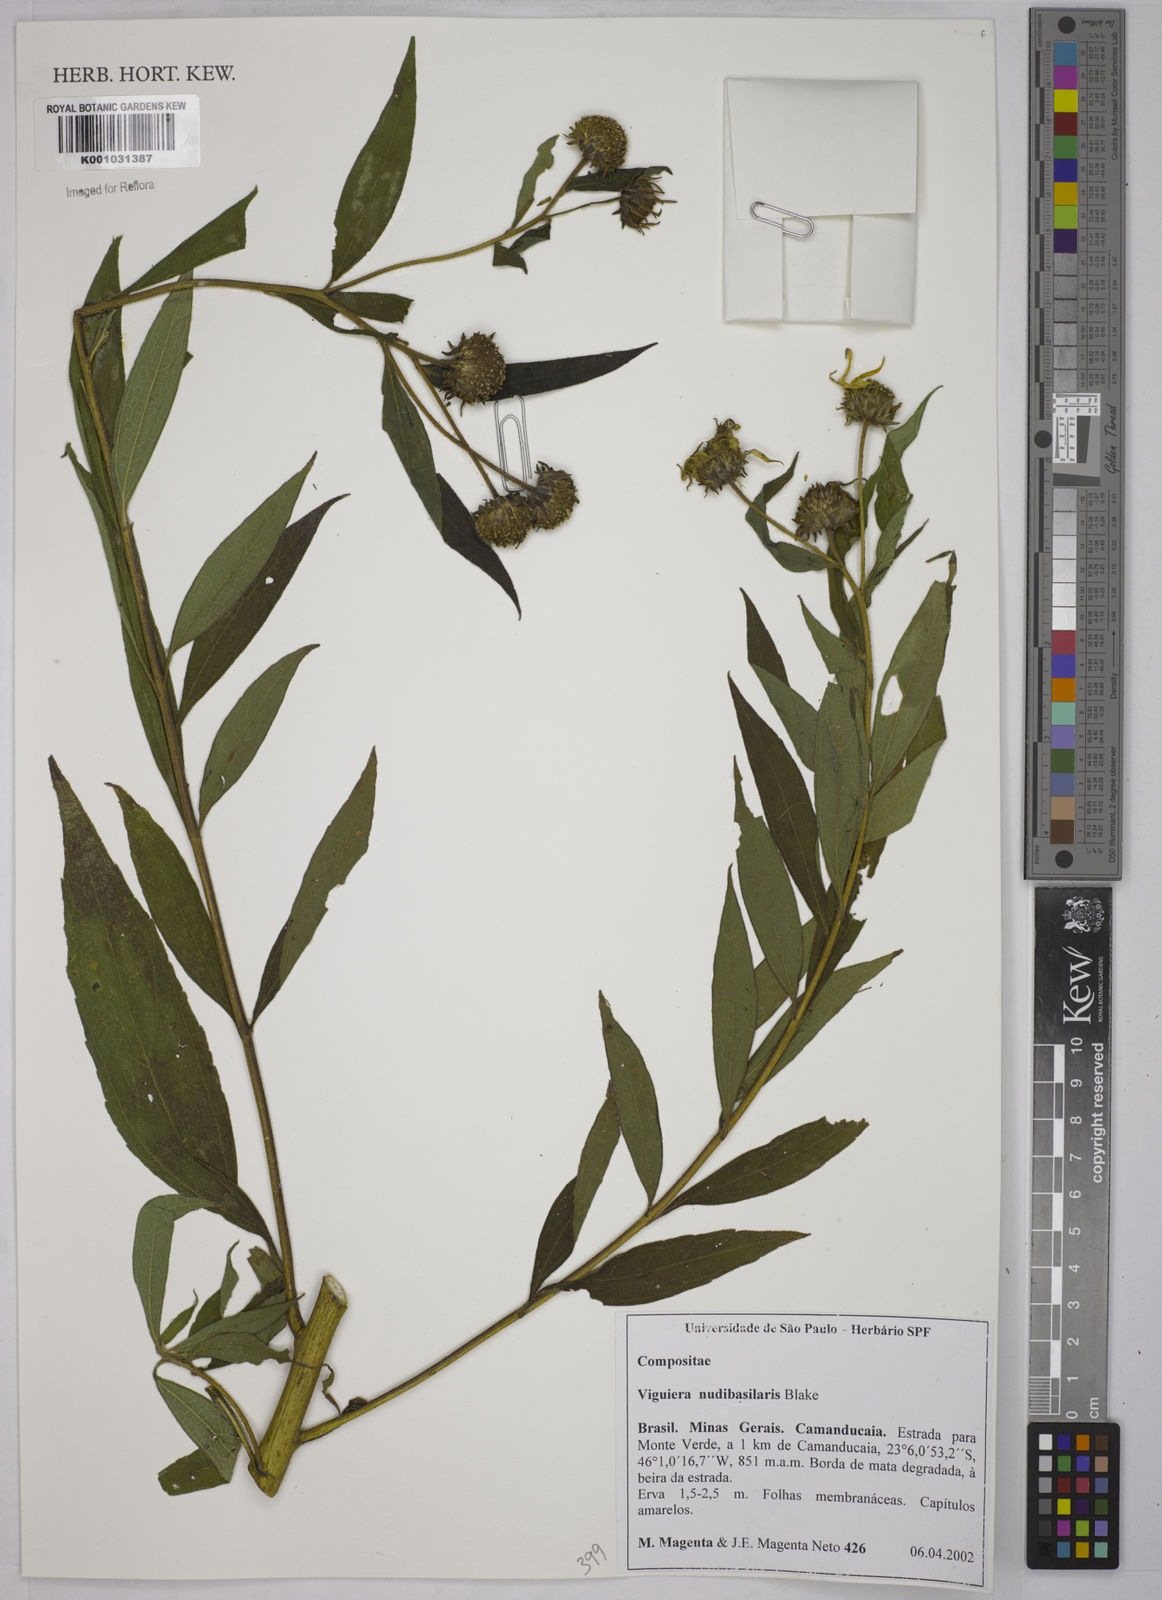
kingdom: Plantae
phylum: Tracheophyta
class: Magnoliopsida
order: Asterales
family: Asteraceae
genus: Aldama
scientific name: Aldama nudibasilaris
